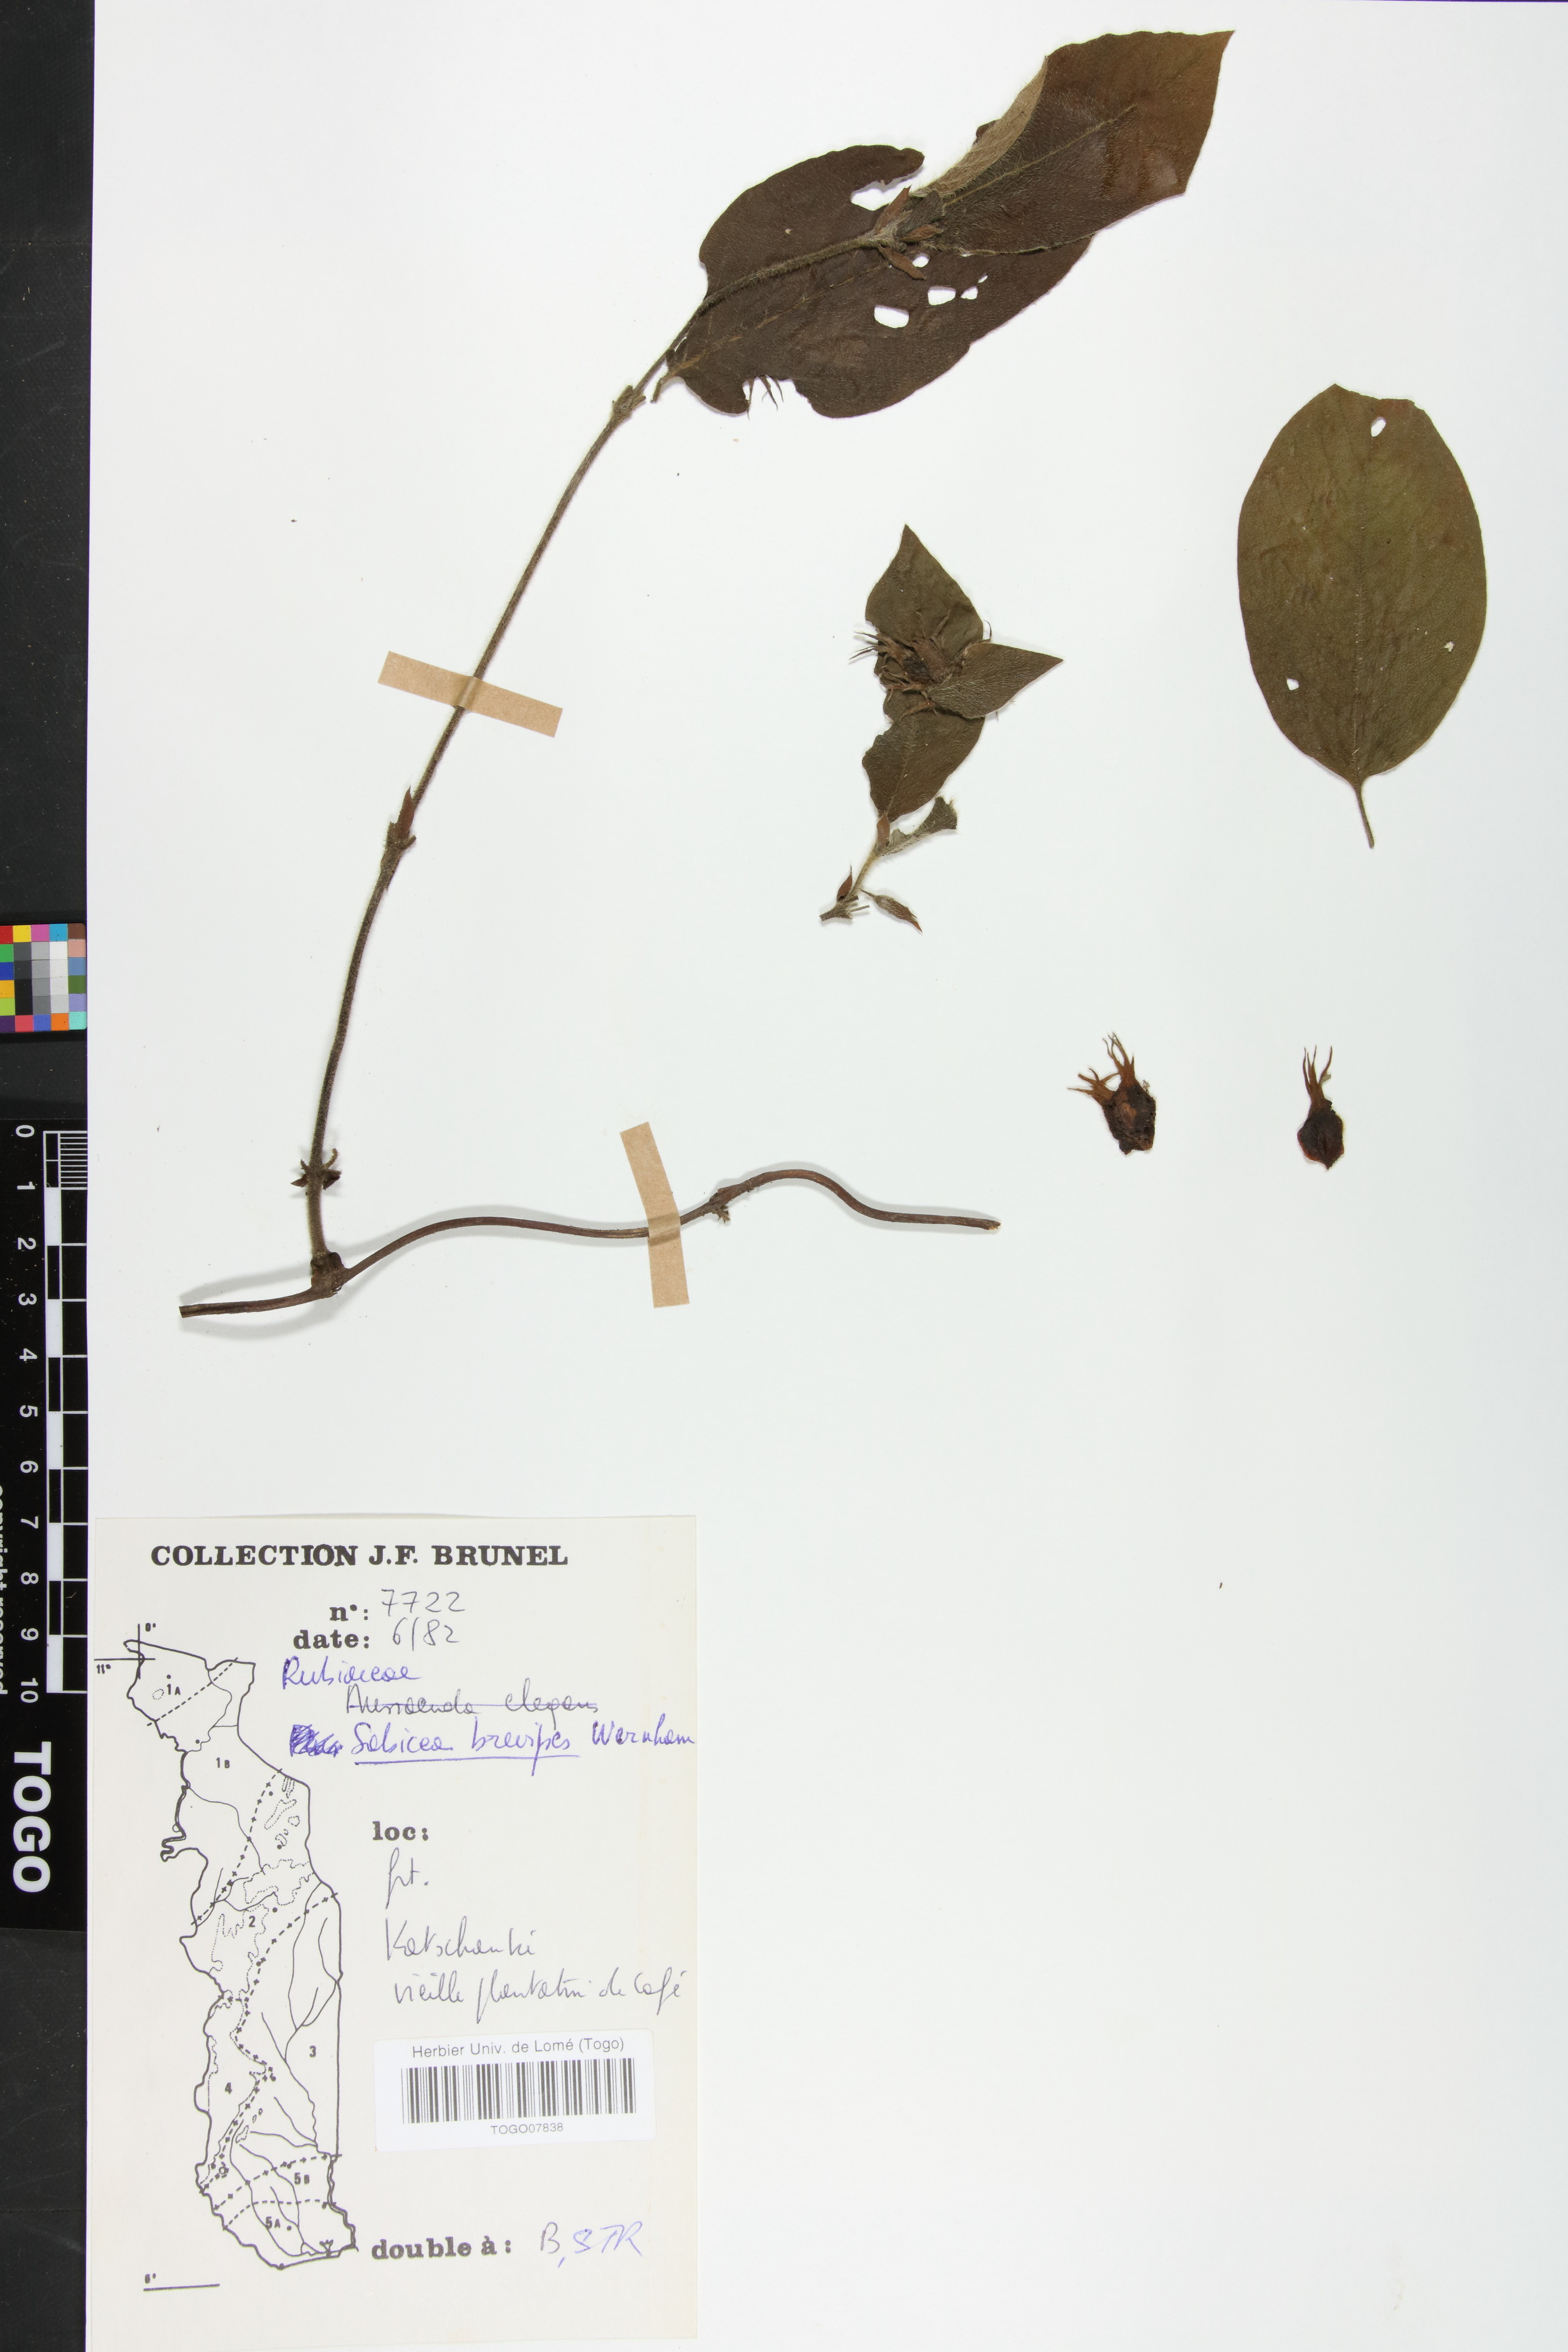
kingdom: Plantae
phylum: Tracheophyta
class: Magnoliopsida
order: Gentianales
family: Rubiaceae
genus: Sabicea
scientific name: Sabicea brevipes
